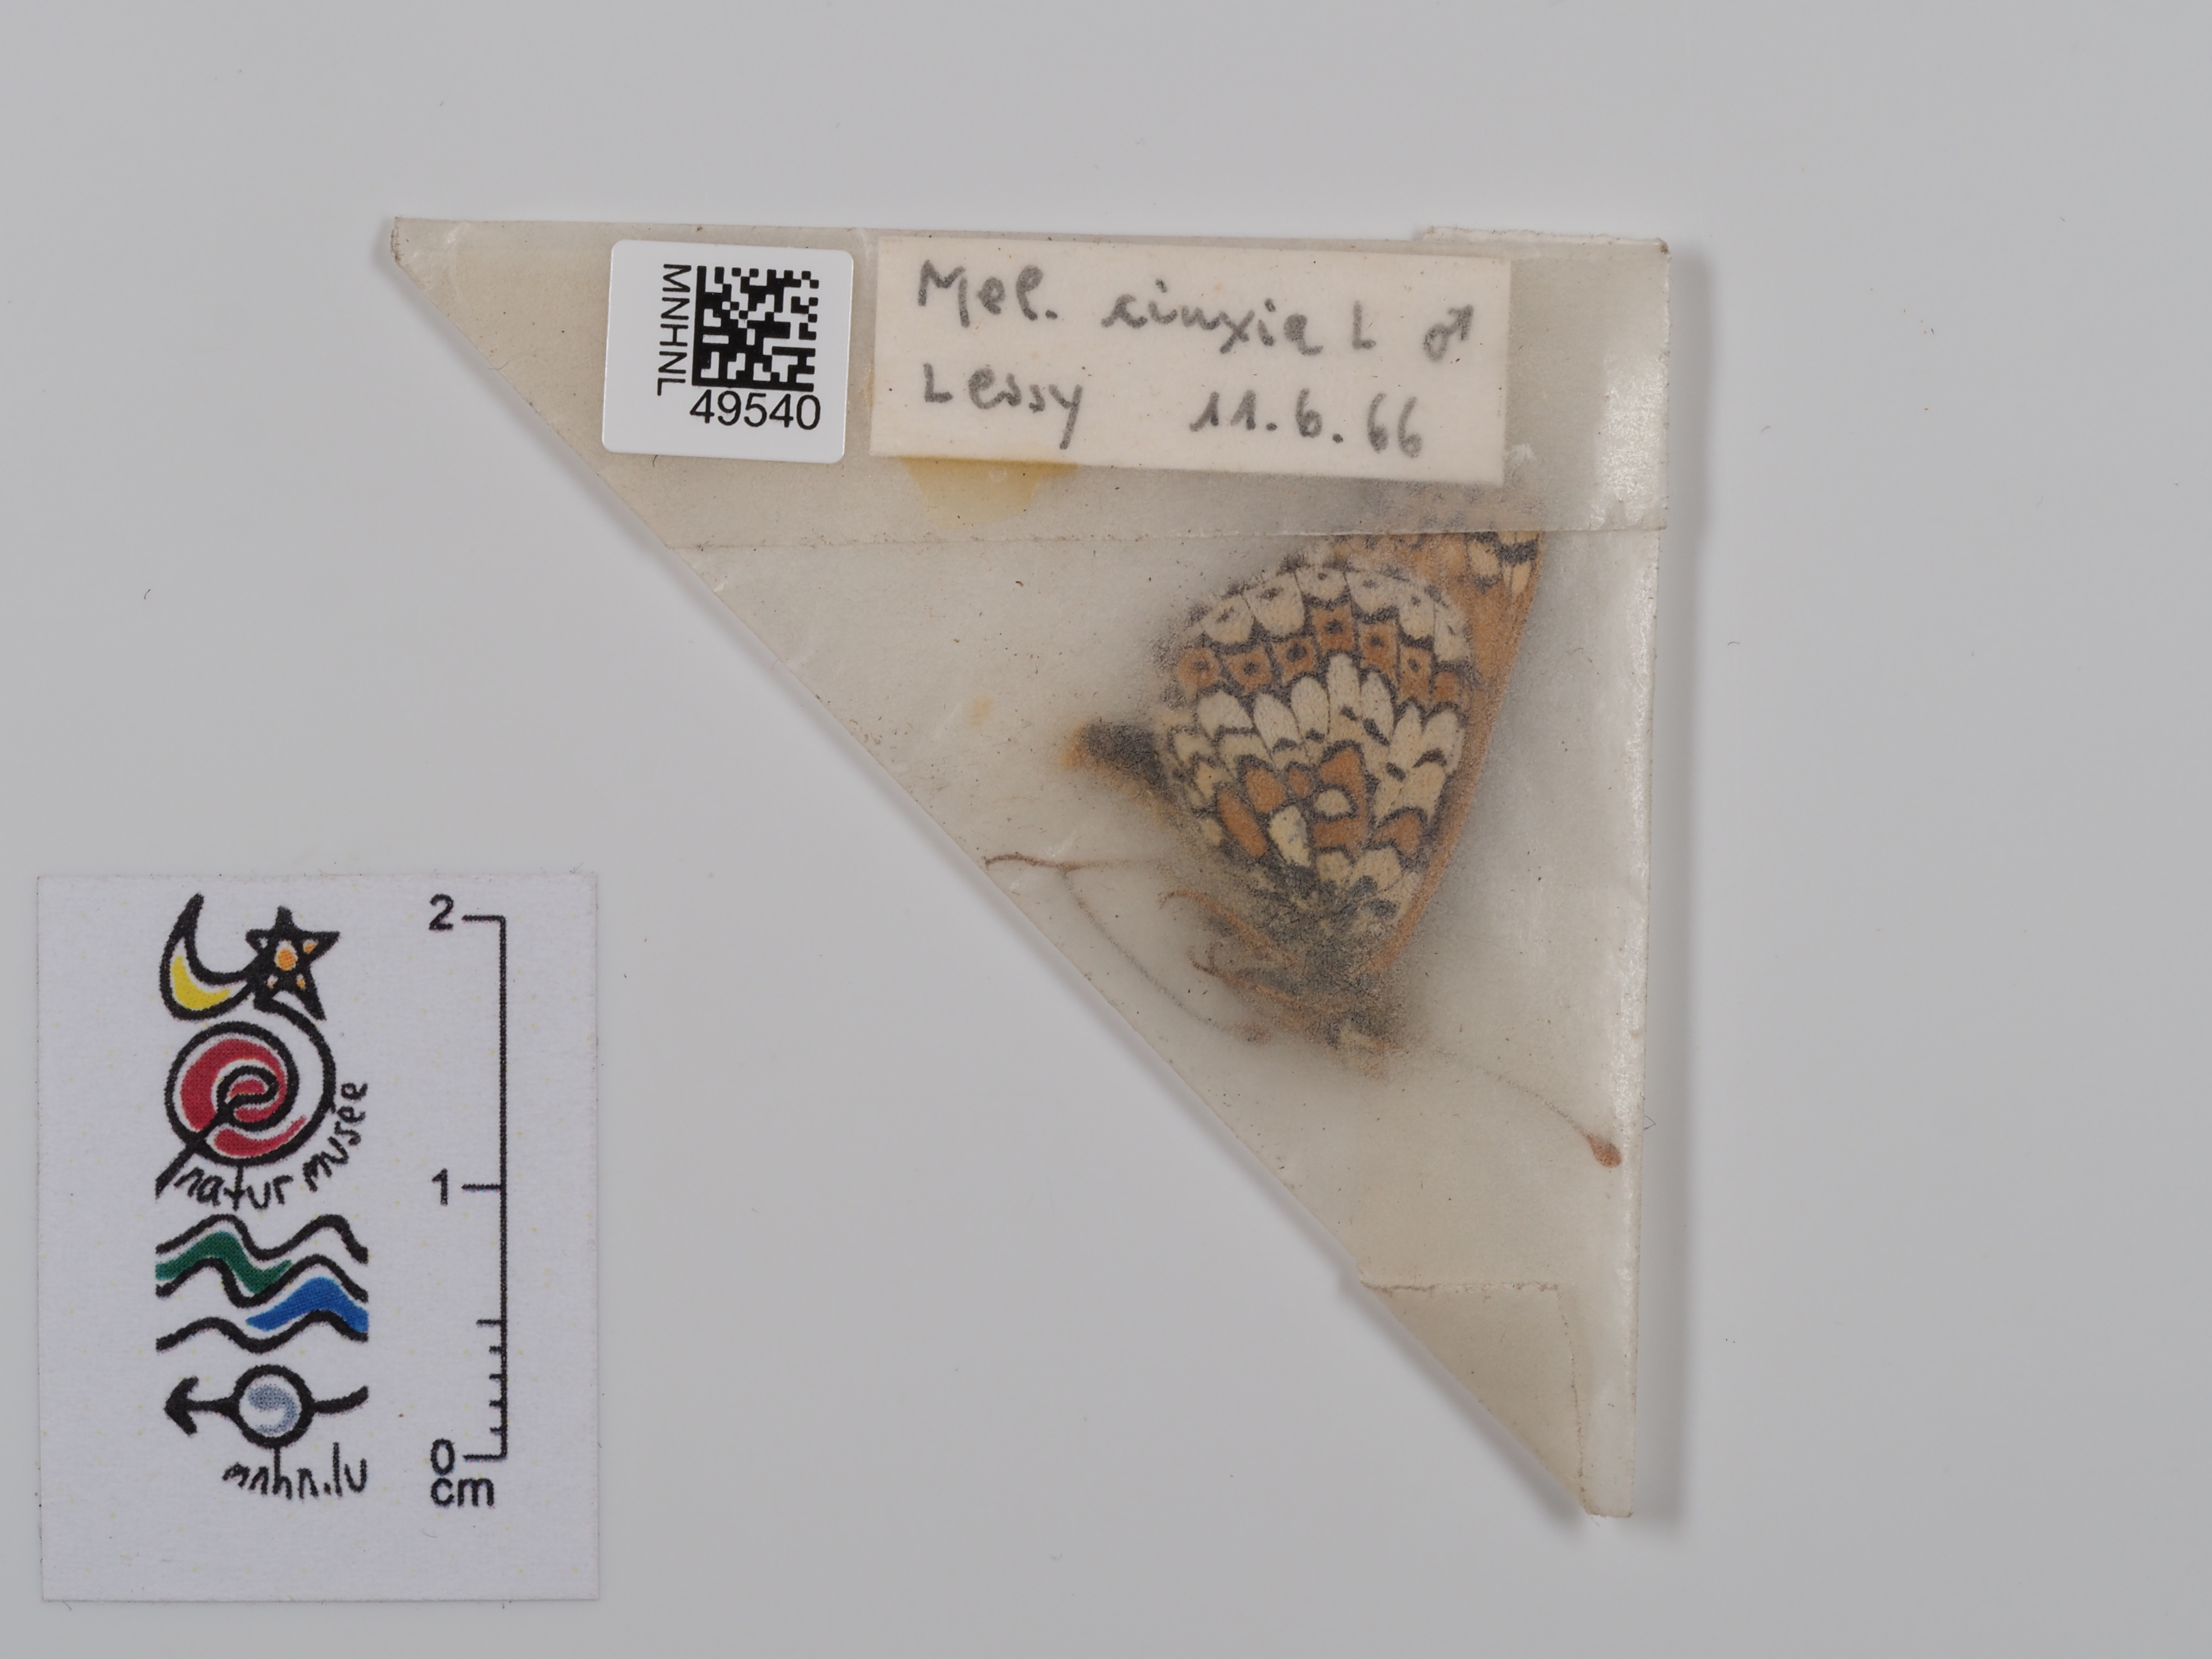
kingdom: Animalia
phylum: Arthropoda
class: Insecta
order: Lepidoptera
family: Nymphalidae
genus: Melitaea
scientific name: Melitaea cinxia
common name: Glanville fritillary
